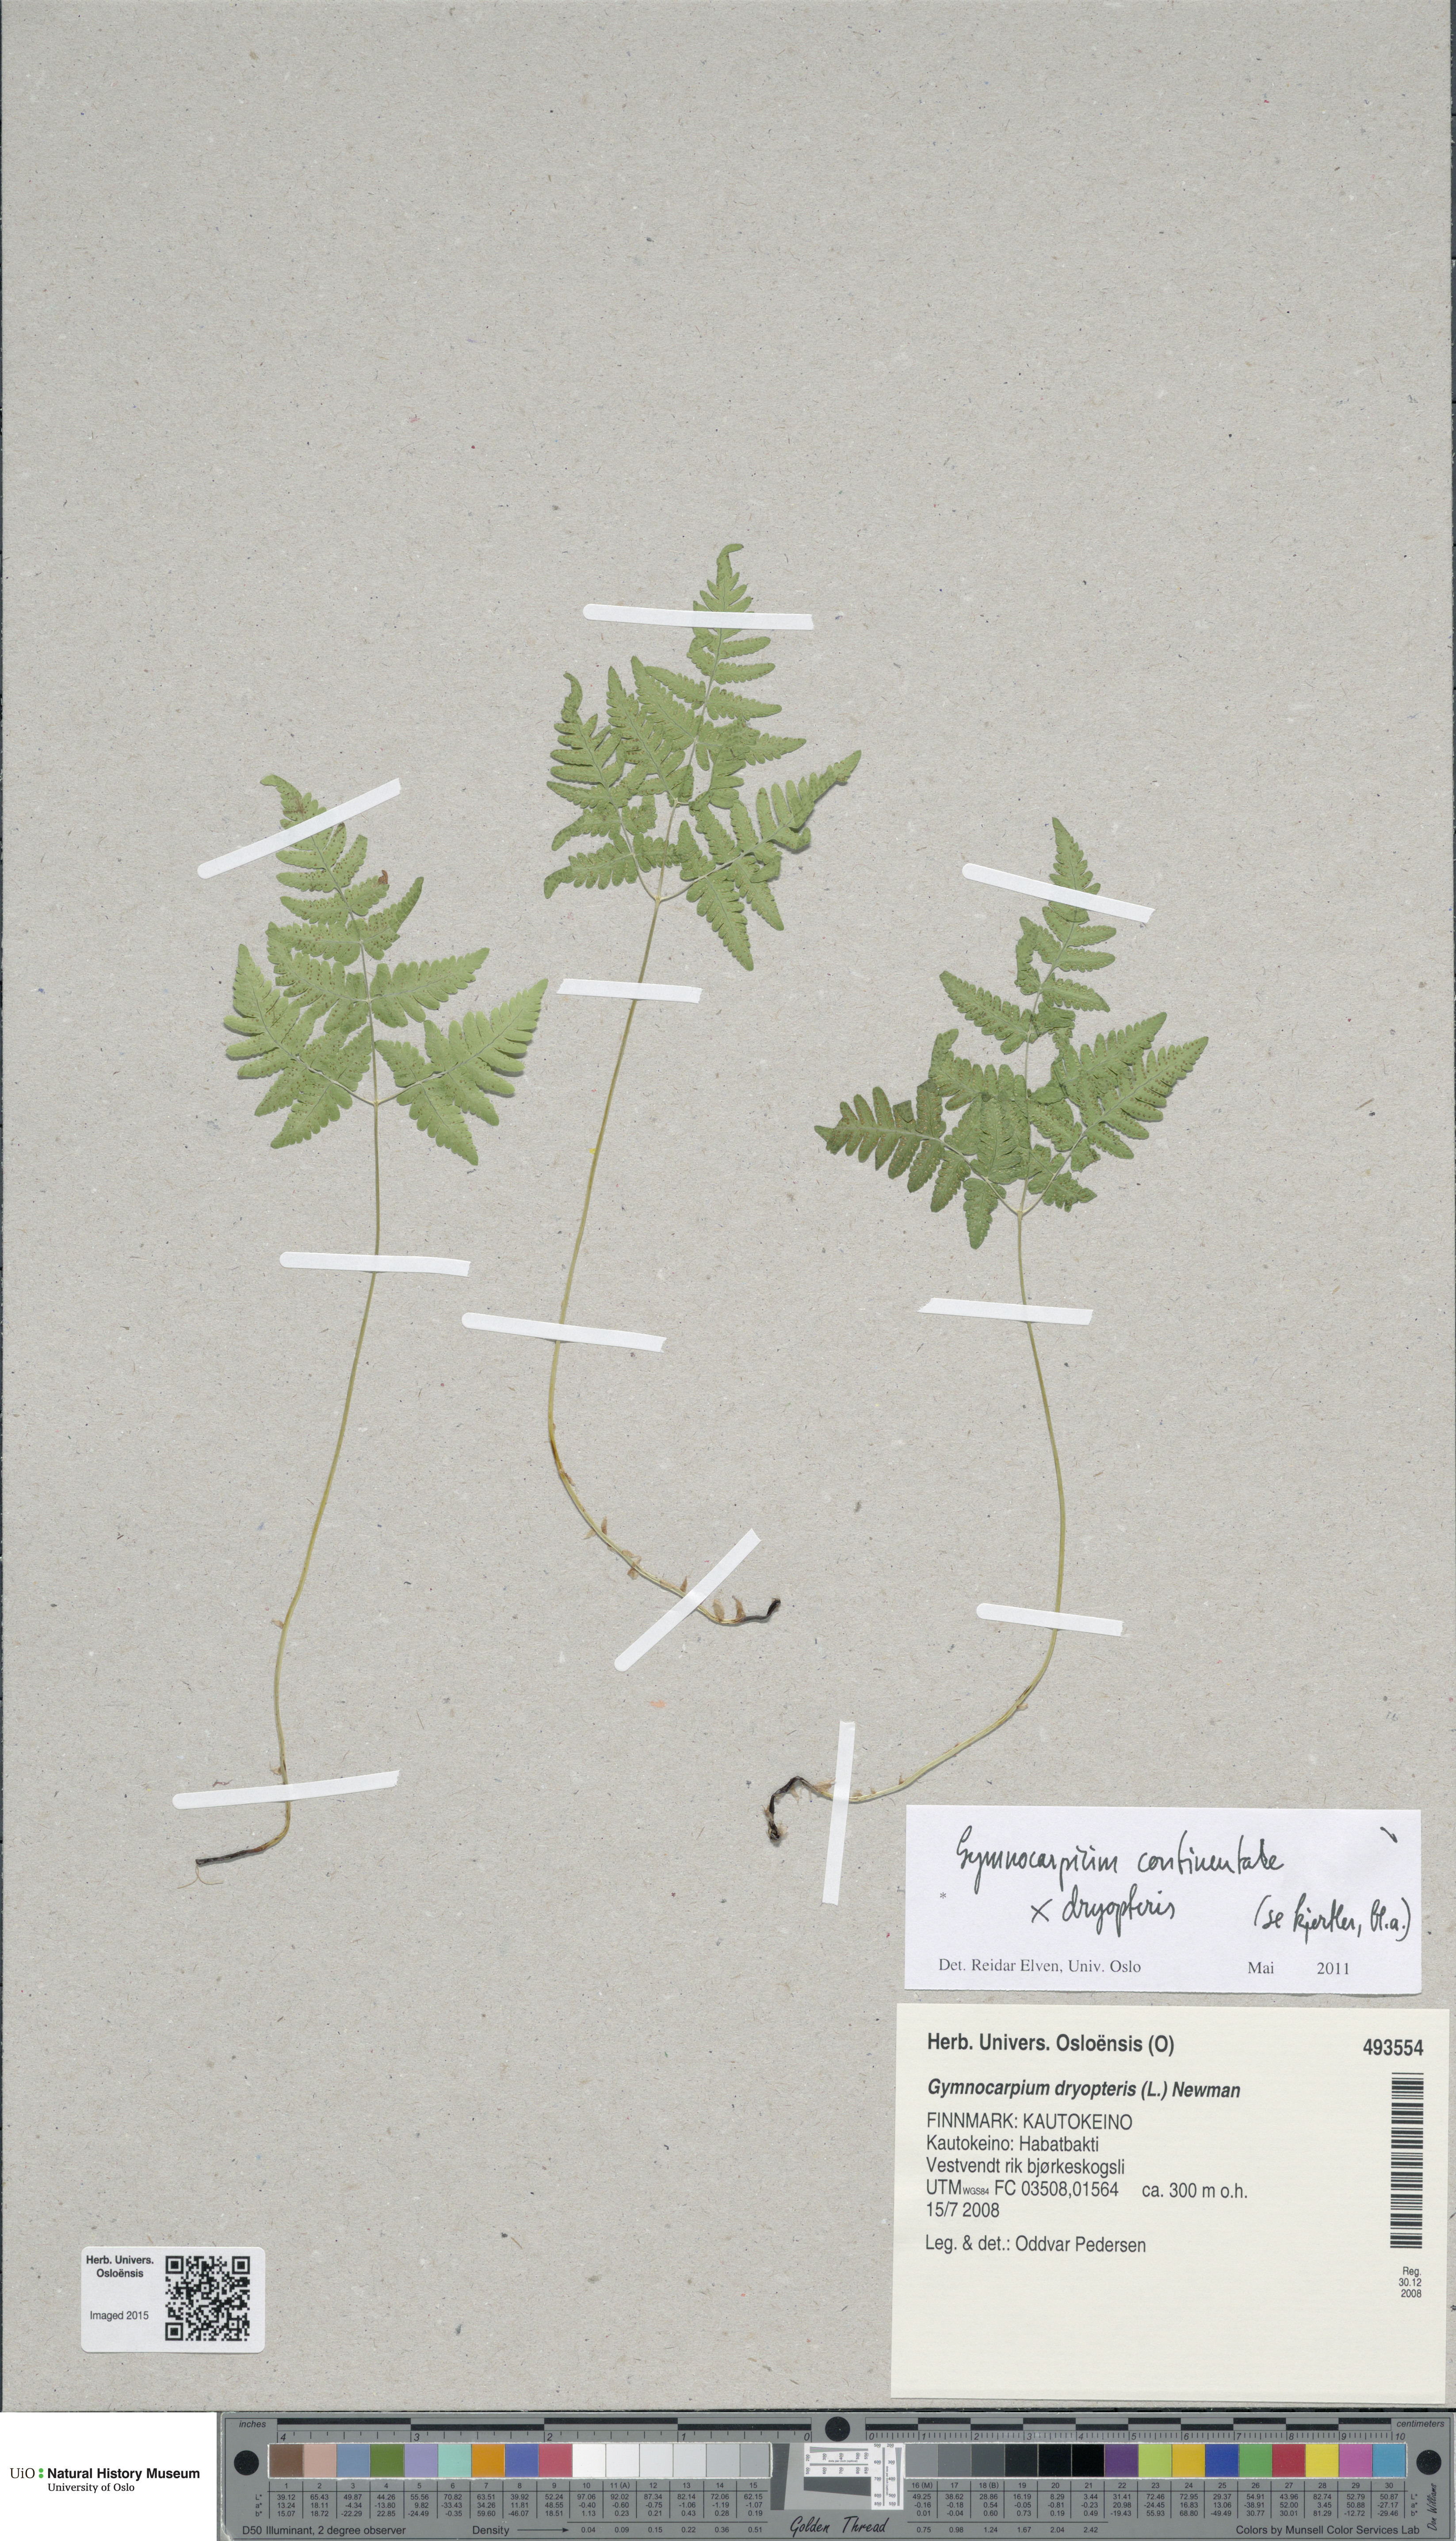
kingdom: Plantae
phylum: Tracheophyta
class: Polypodiopsida
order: Polypodiales
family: Cystopteridaceae
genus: Gymnocarpium
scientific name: Gymnocarpium
